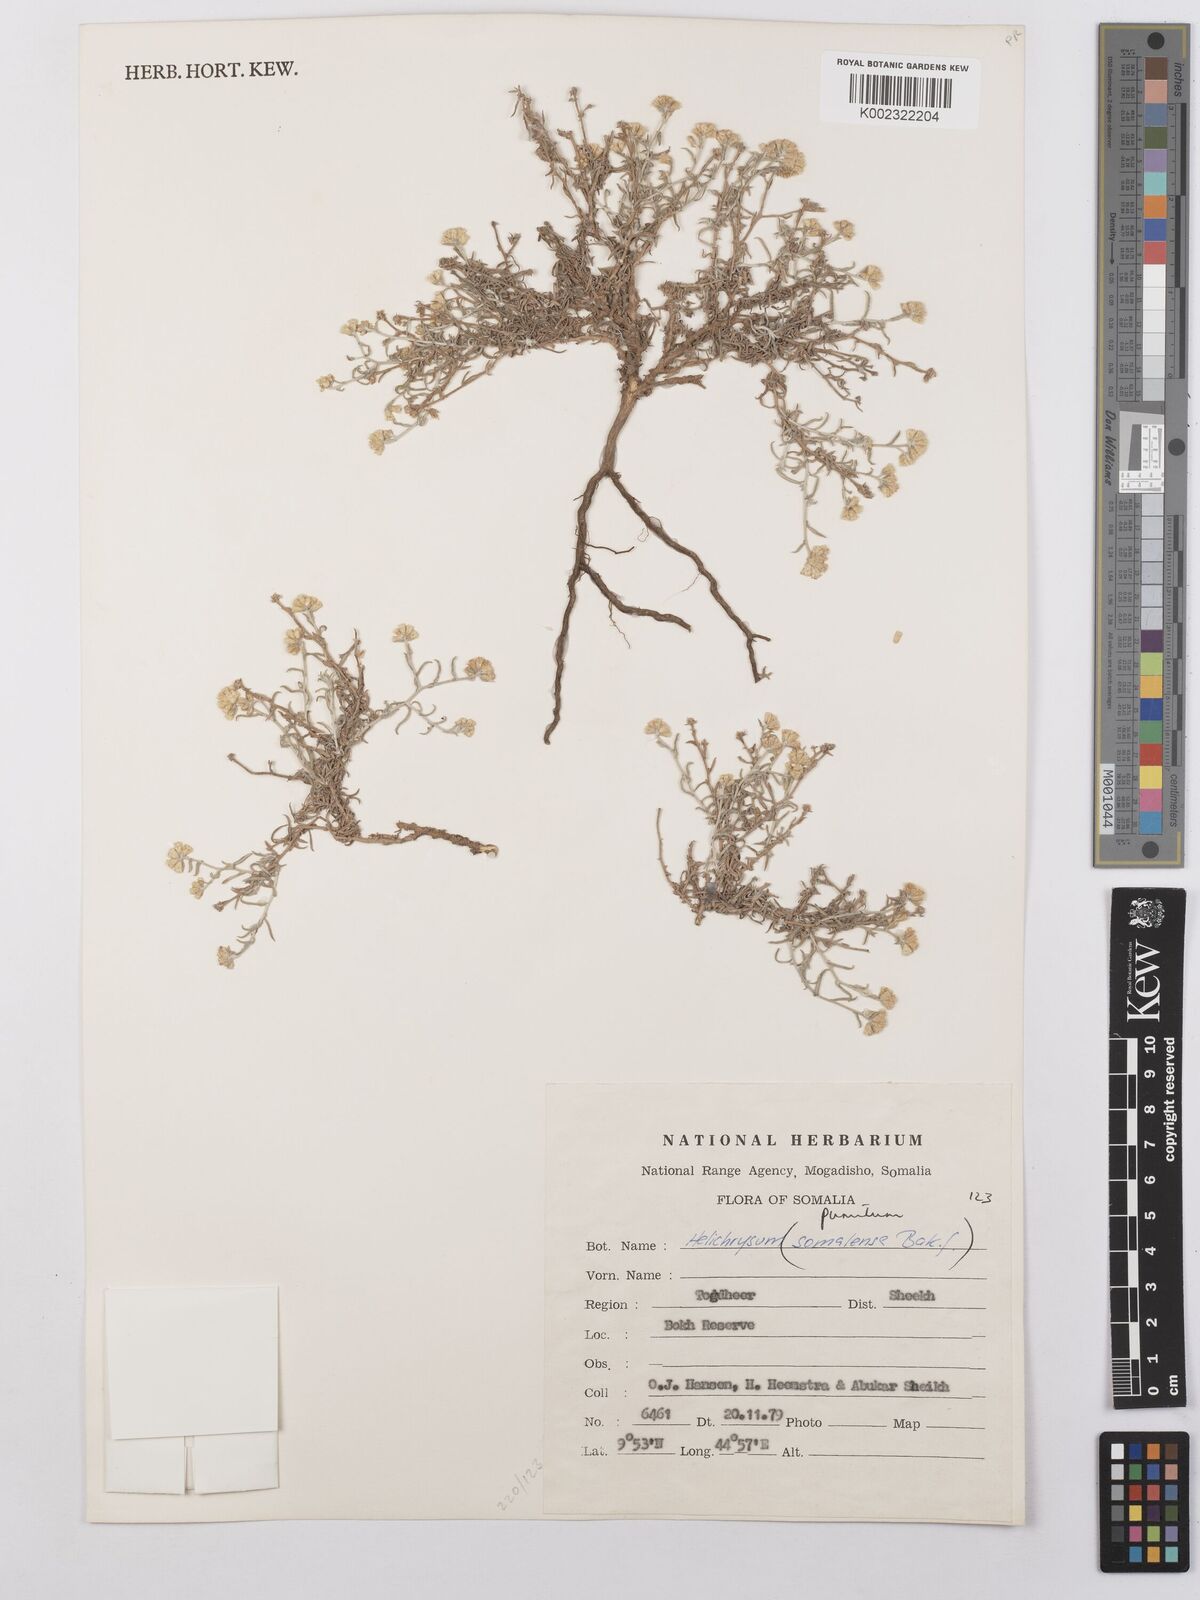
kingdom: Plantae
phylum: Tracheophyta
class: Magnoliopsida
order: Asterales
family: Asteraceae
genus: Helichrysum
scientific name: Helichrysum somalense
